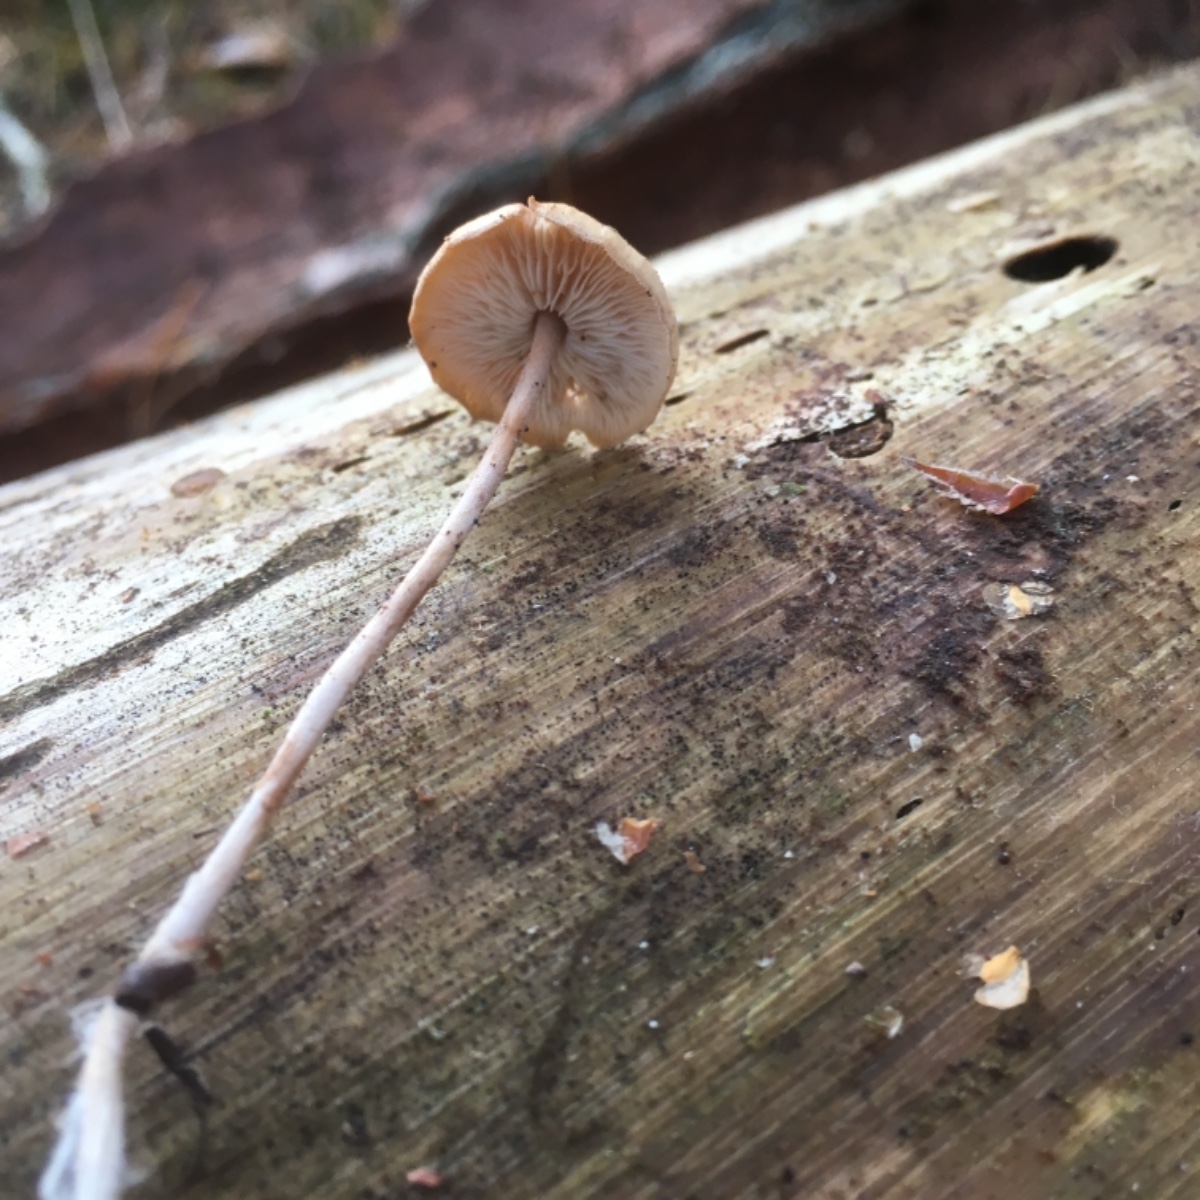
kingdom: Fungi
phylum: Basidiomycota
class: Agaricomycetes
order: Agaricales
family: Marasmiaceae
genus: Baeospora
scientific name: Baeospora myosura
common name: koglebruskhat
